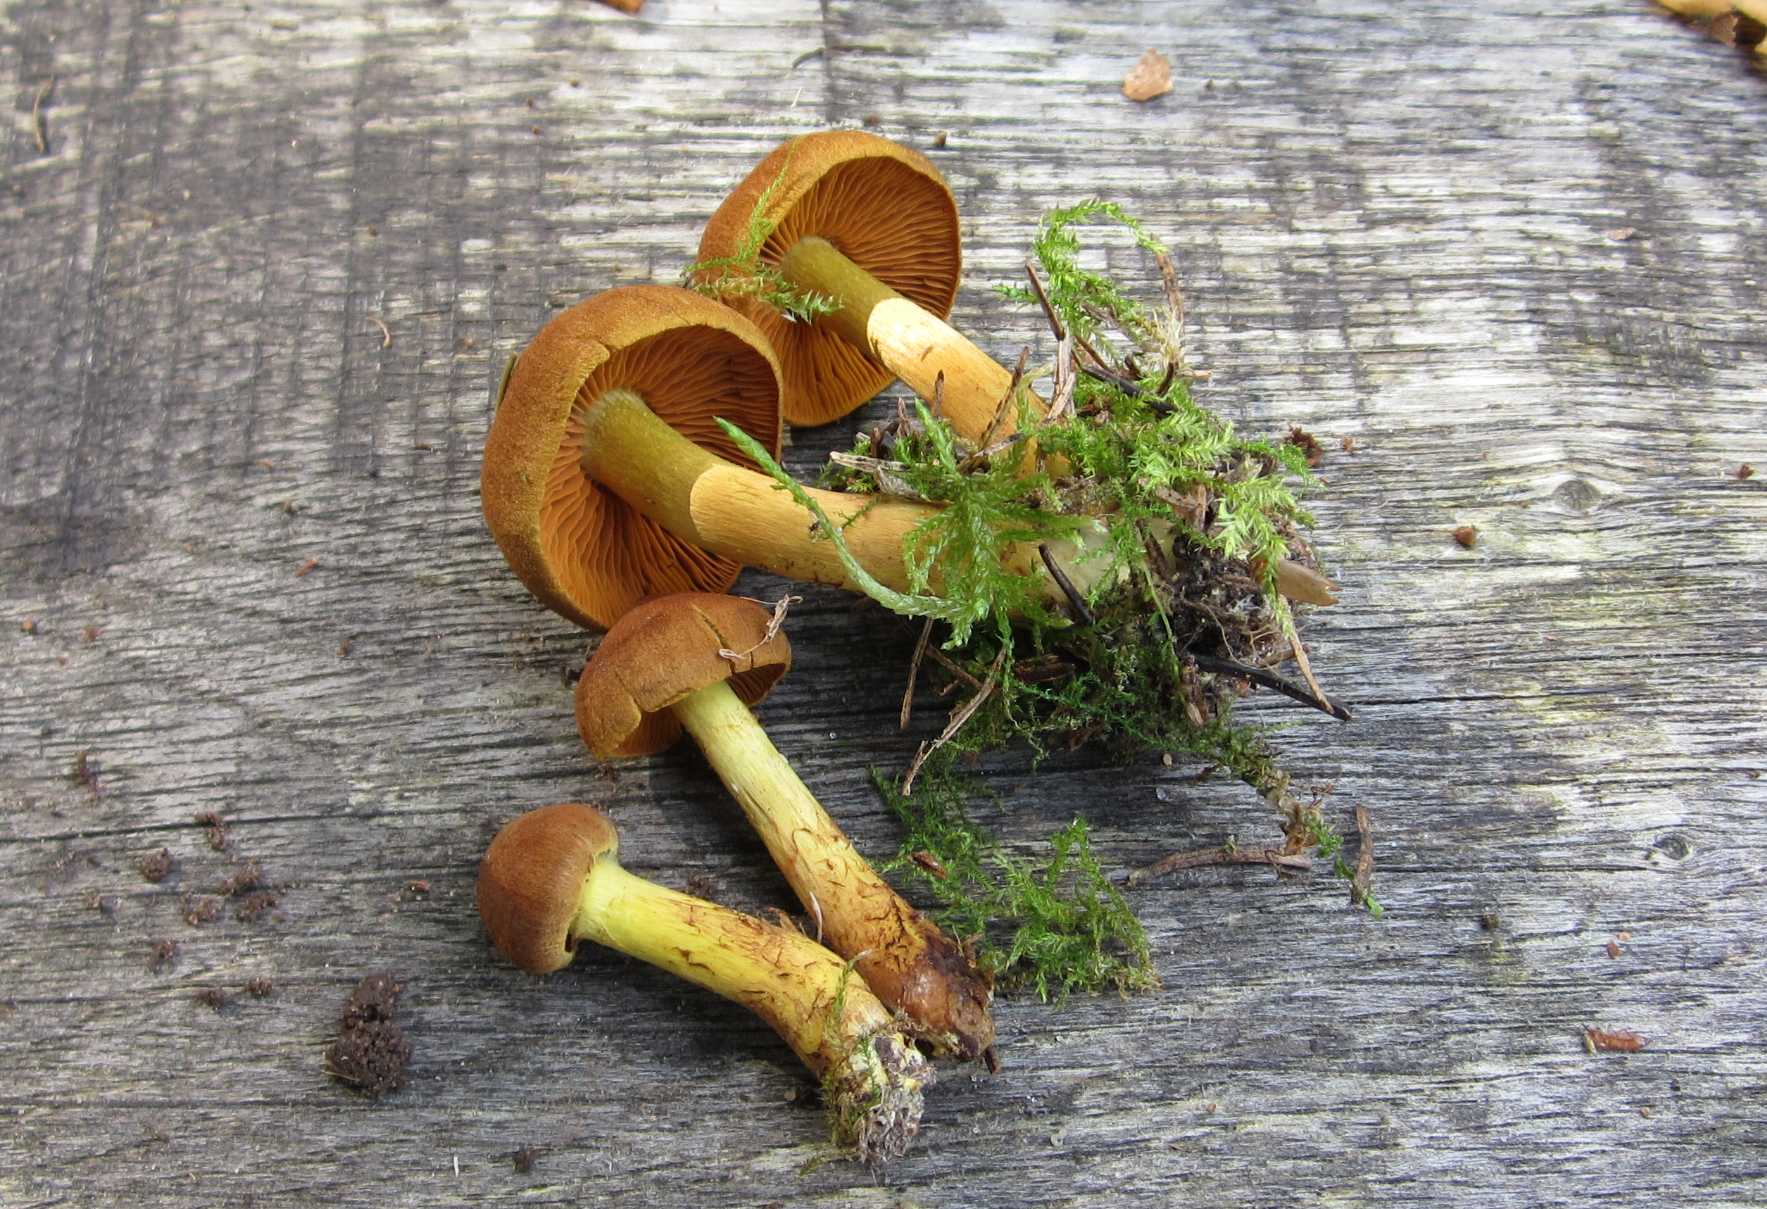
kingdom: Fungi
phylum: Basidiomycota
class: Agaricomycetes
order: Agaricales
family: Cortinariaceae
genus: Cortinarius
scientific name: Cortinarius cinnamomeus
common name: kanel-slørhat
